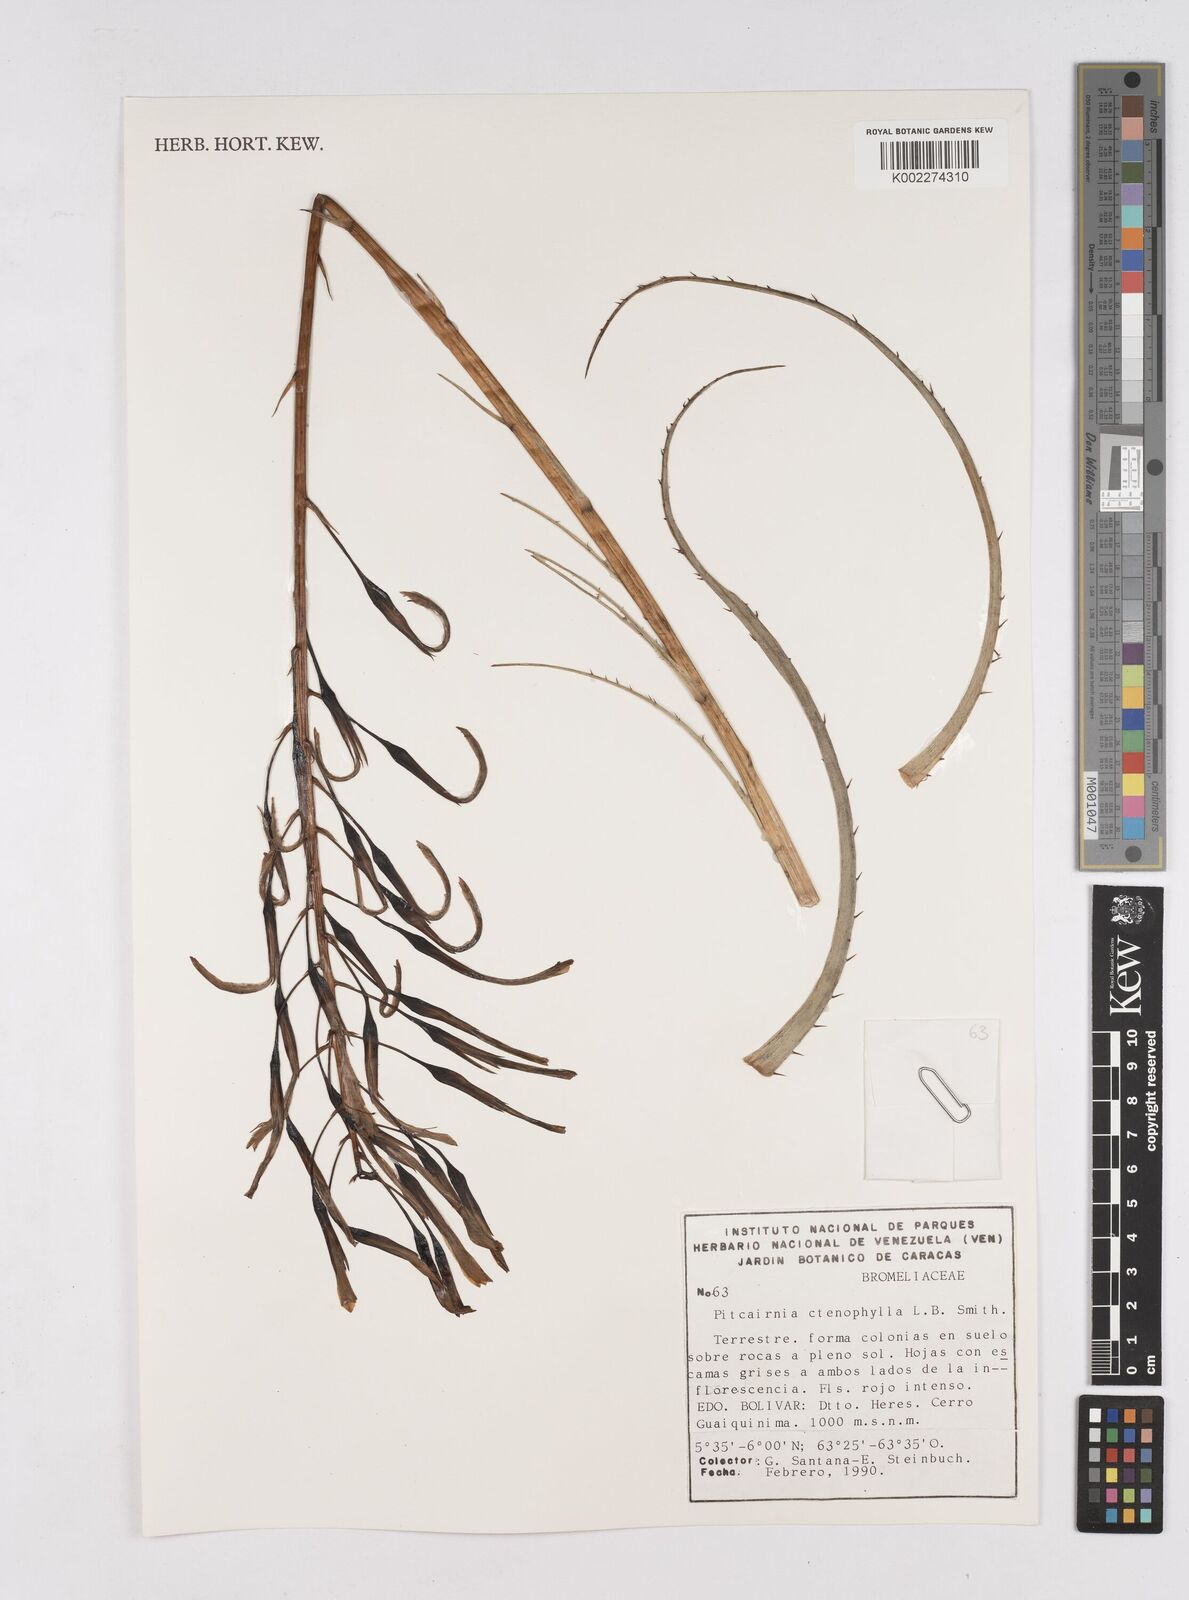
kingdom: Plantae
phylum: Tracheophyta
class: Liliopsida
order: Poales
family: Bromeliaceae
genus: Pitcairnia
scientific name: Pitcairnia ctenophylla
